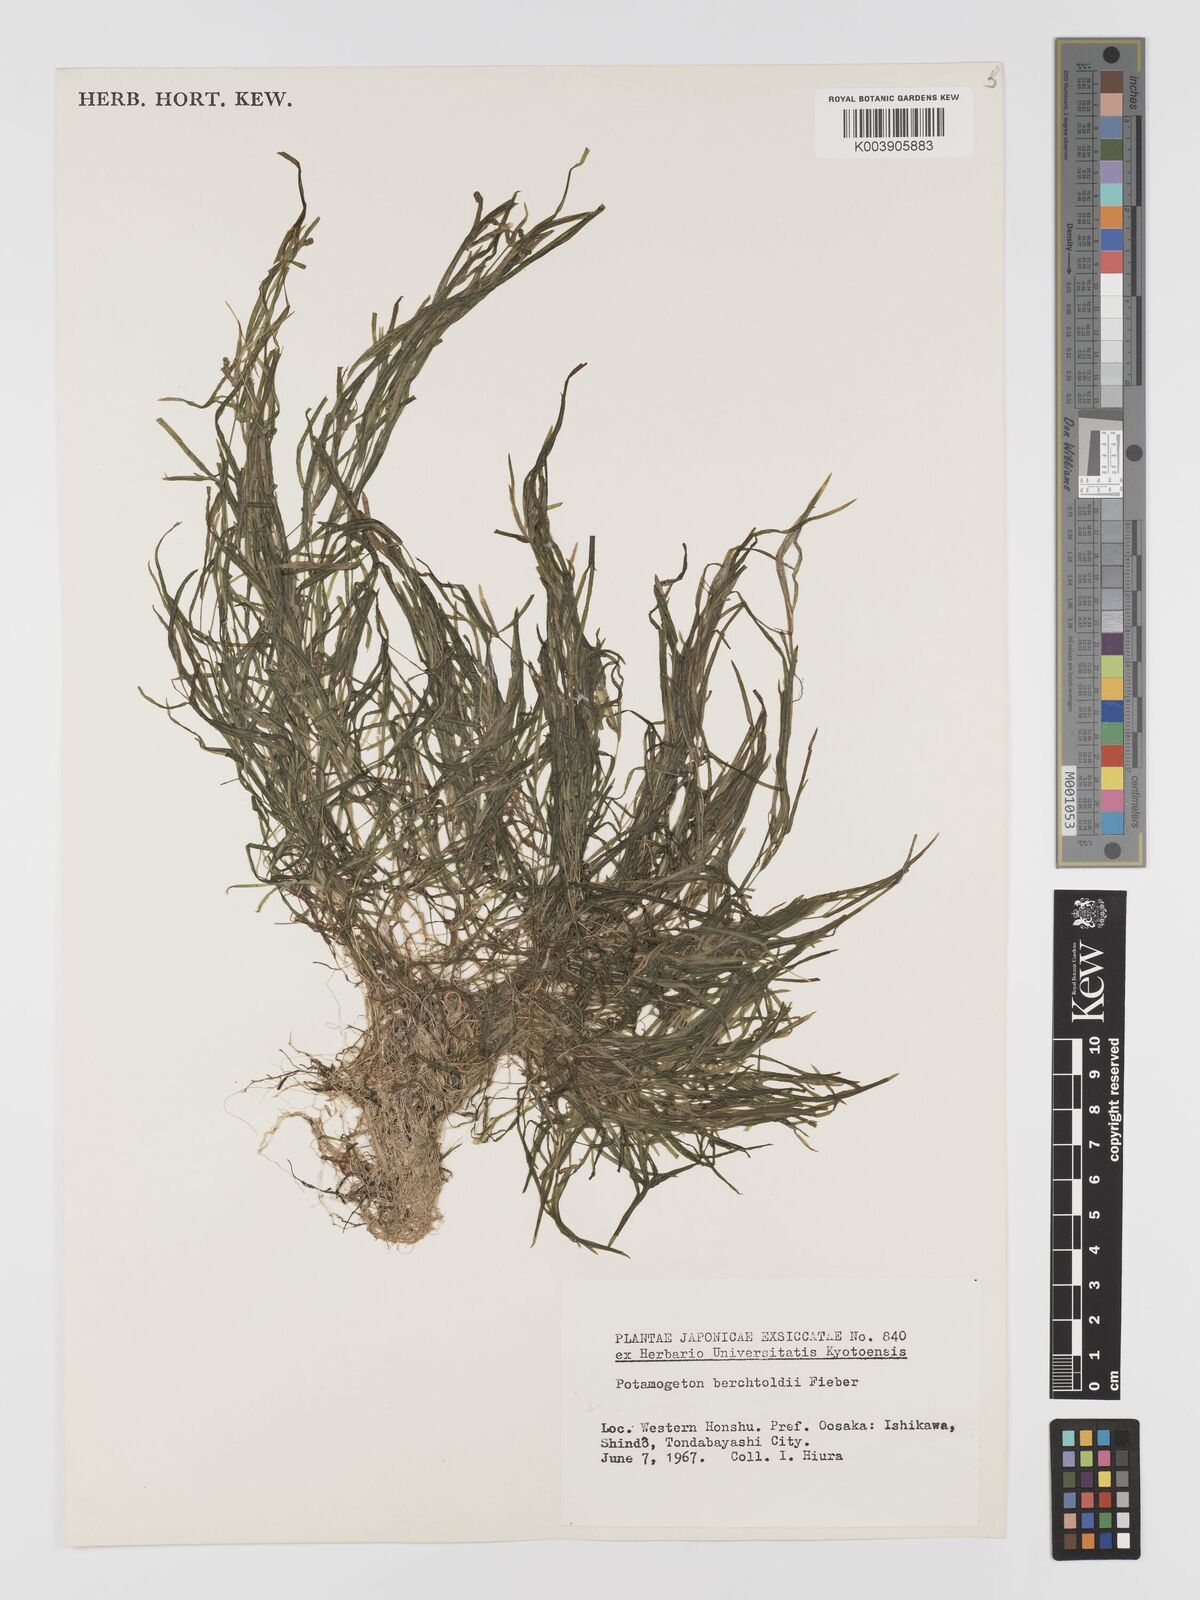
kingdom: Plantae
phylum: Tracheophyta
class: Liliopsida
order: Alismatales
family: Potamogetonaceae
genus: Potamogeton
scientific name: Potamogeton octandrus
